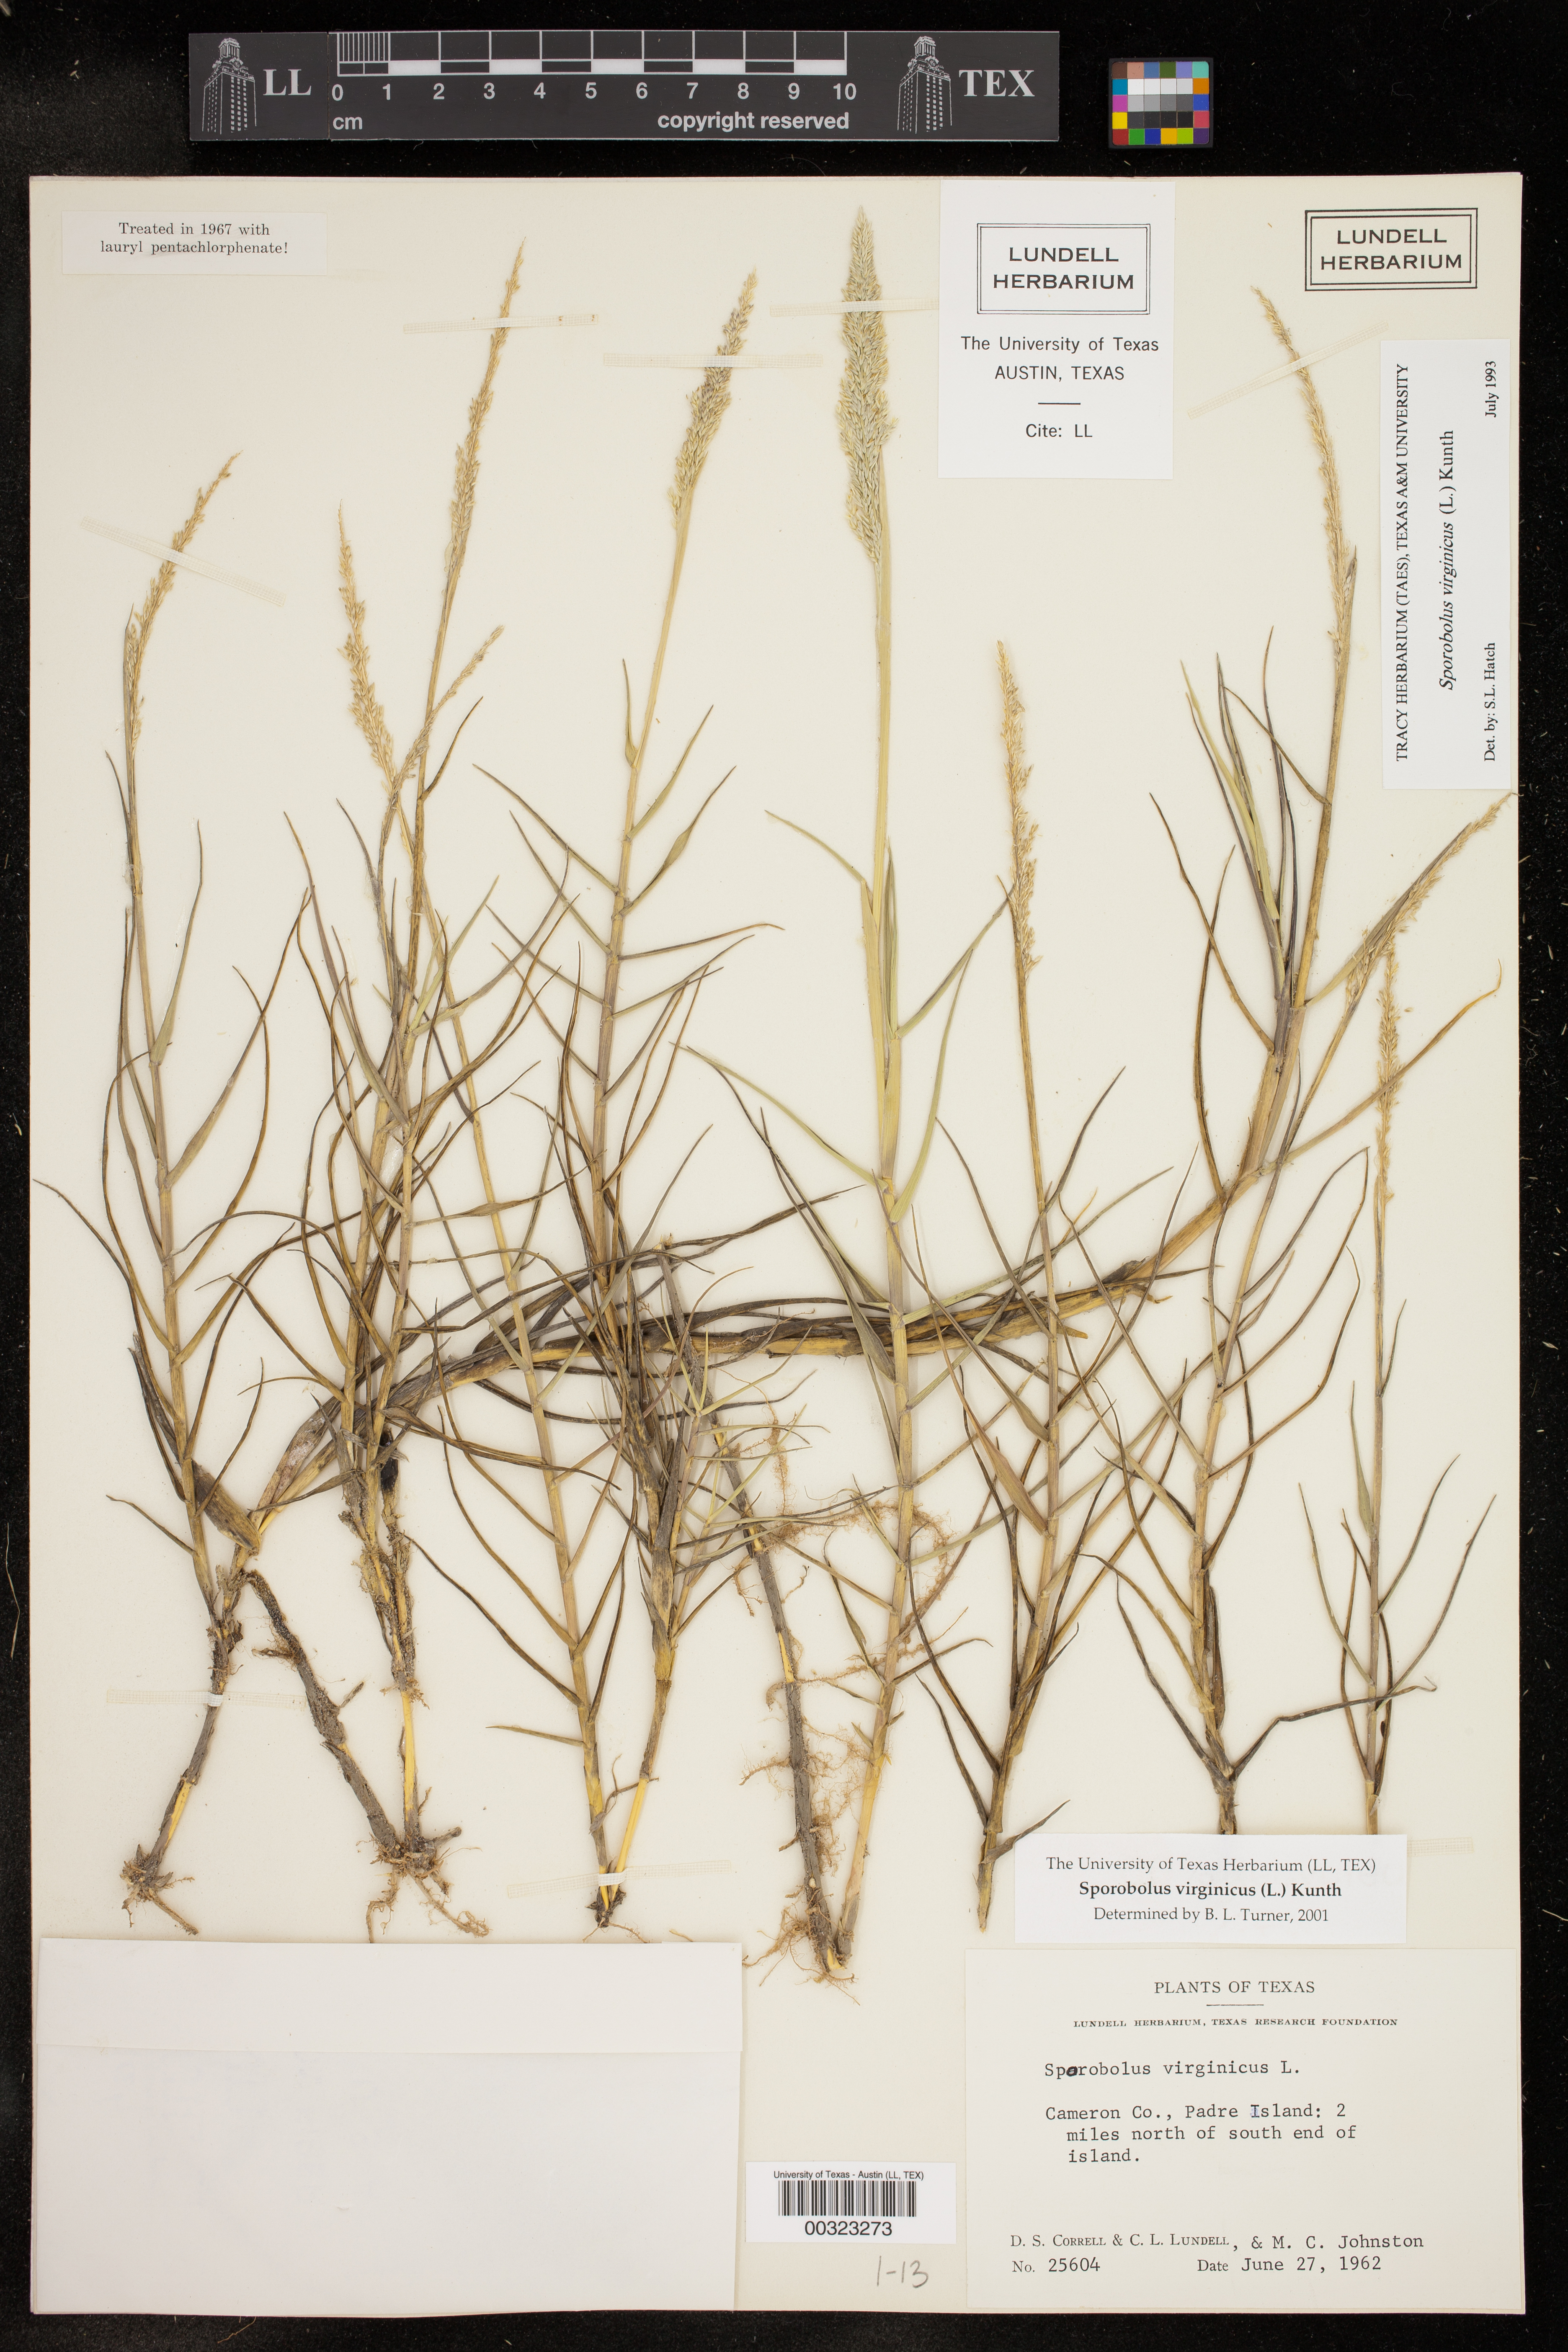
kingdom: Plantae
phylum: Tracheophyta
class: Liliopsida
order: Poales
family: Poaceae
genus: Sporobolus
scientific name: Sporobolus virginicus
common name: Beach dropseed
